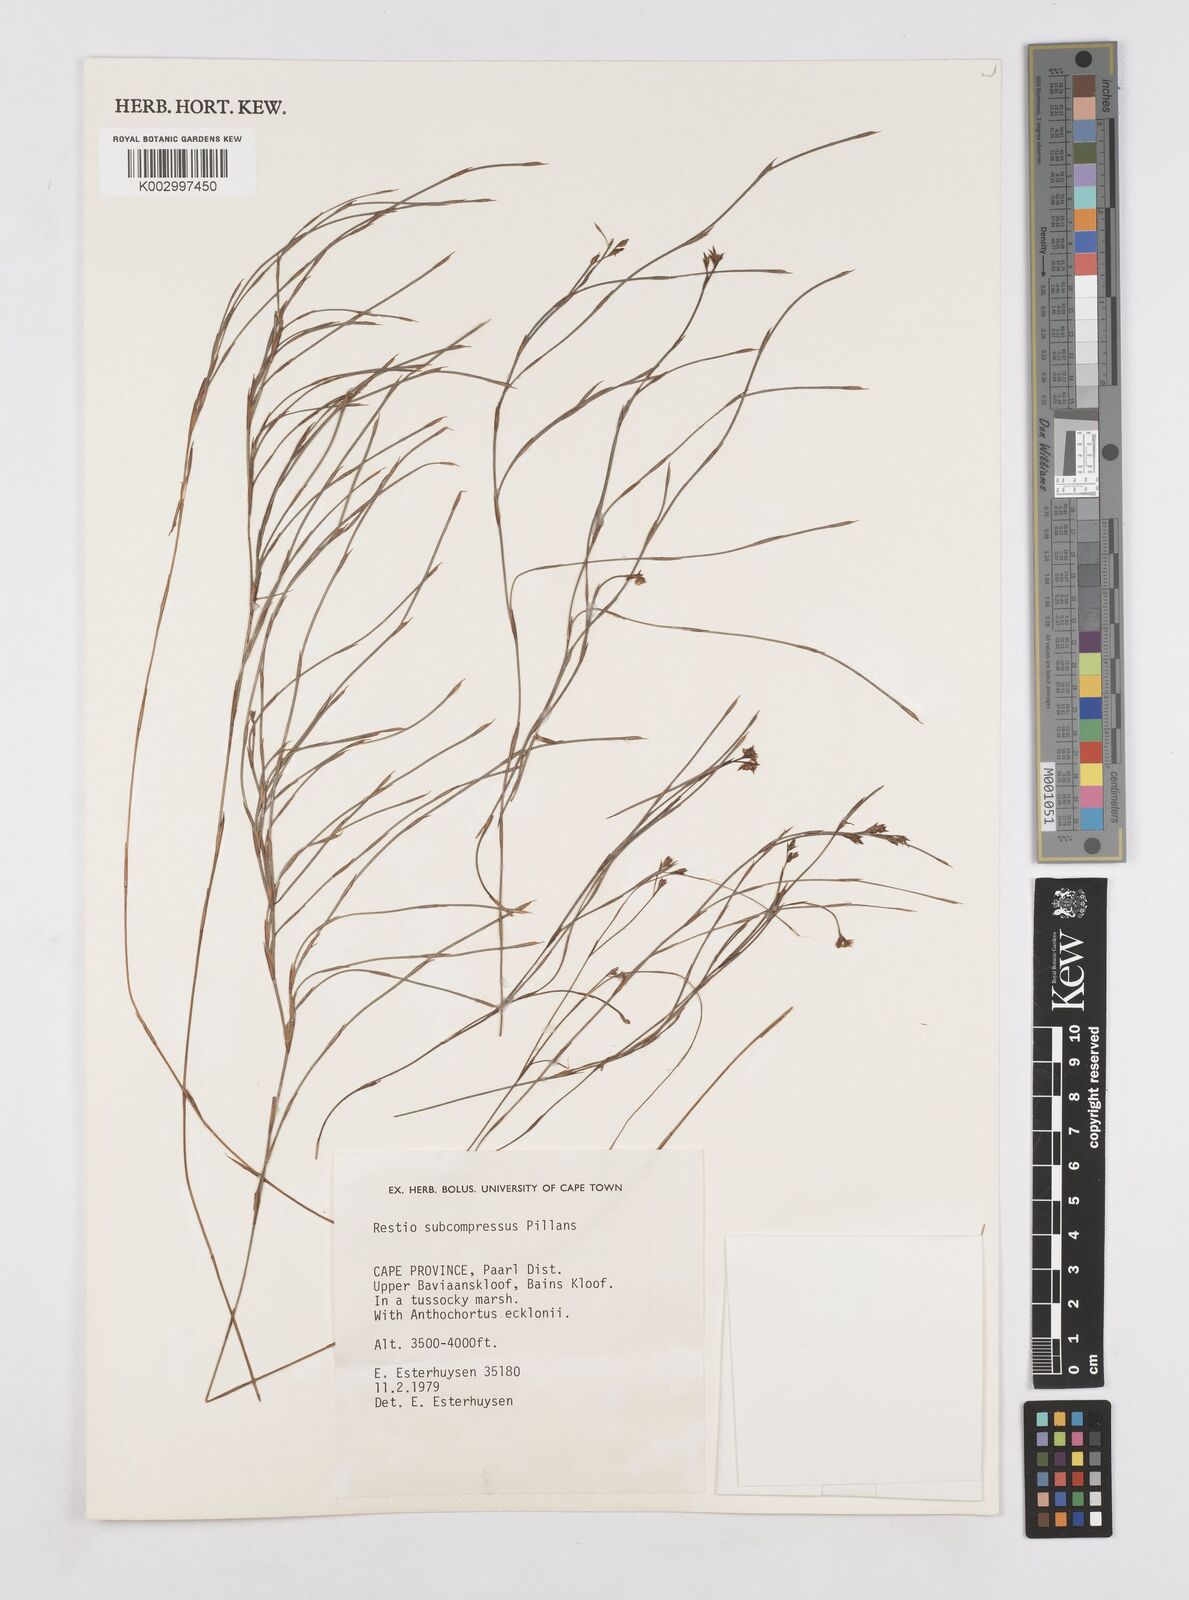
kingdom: Plantae
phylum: Tracheophyta
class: Liliopsida
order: Poales
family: Restionaceae
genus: Platycaulos
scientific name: Platycaulos subcompressus
